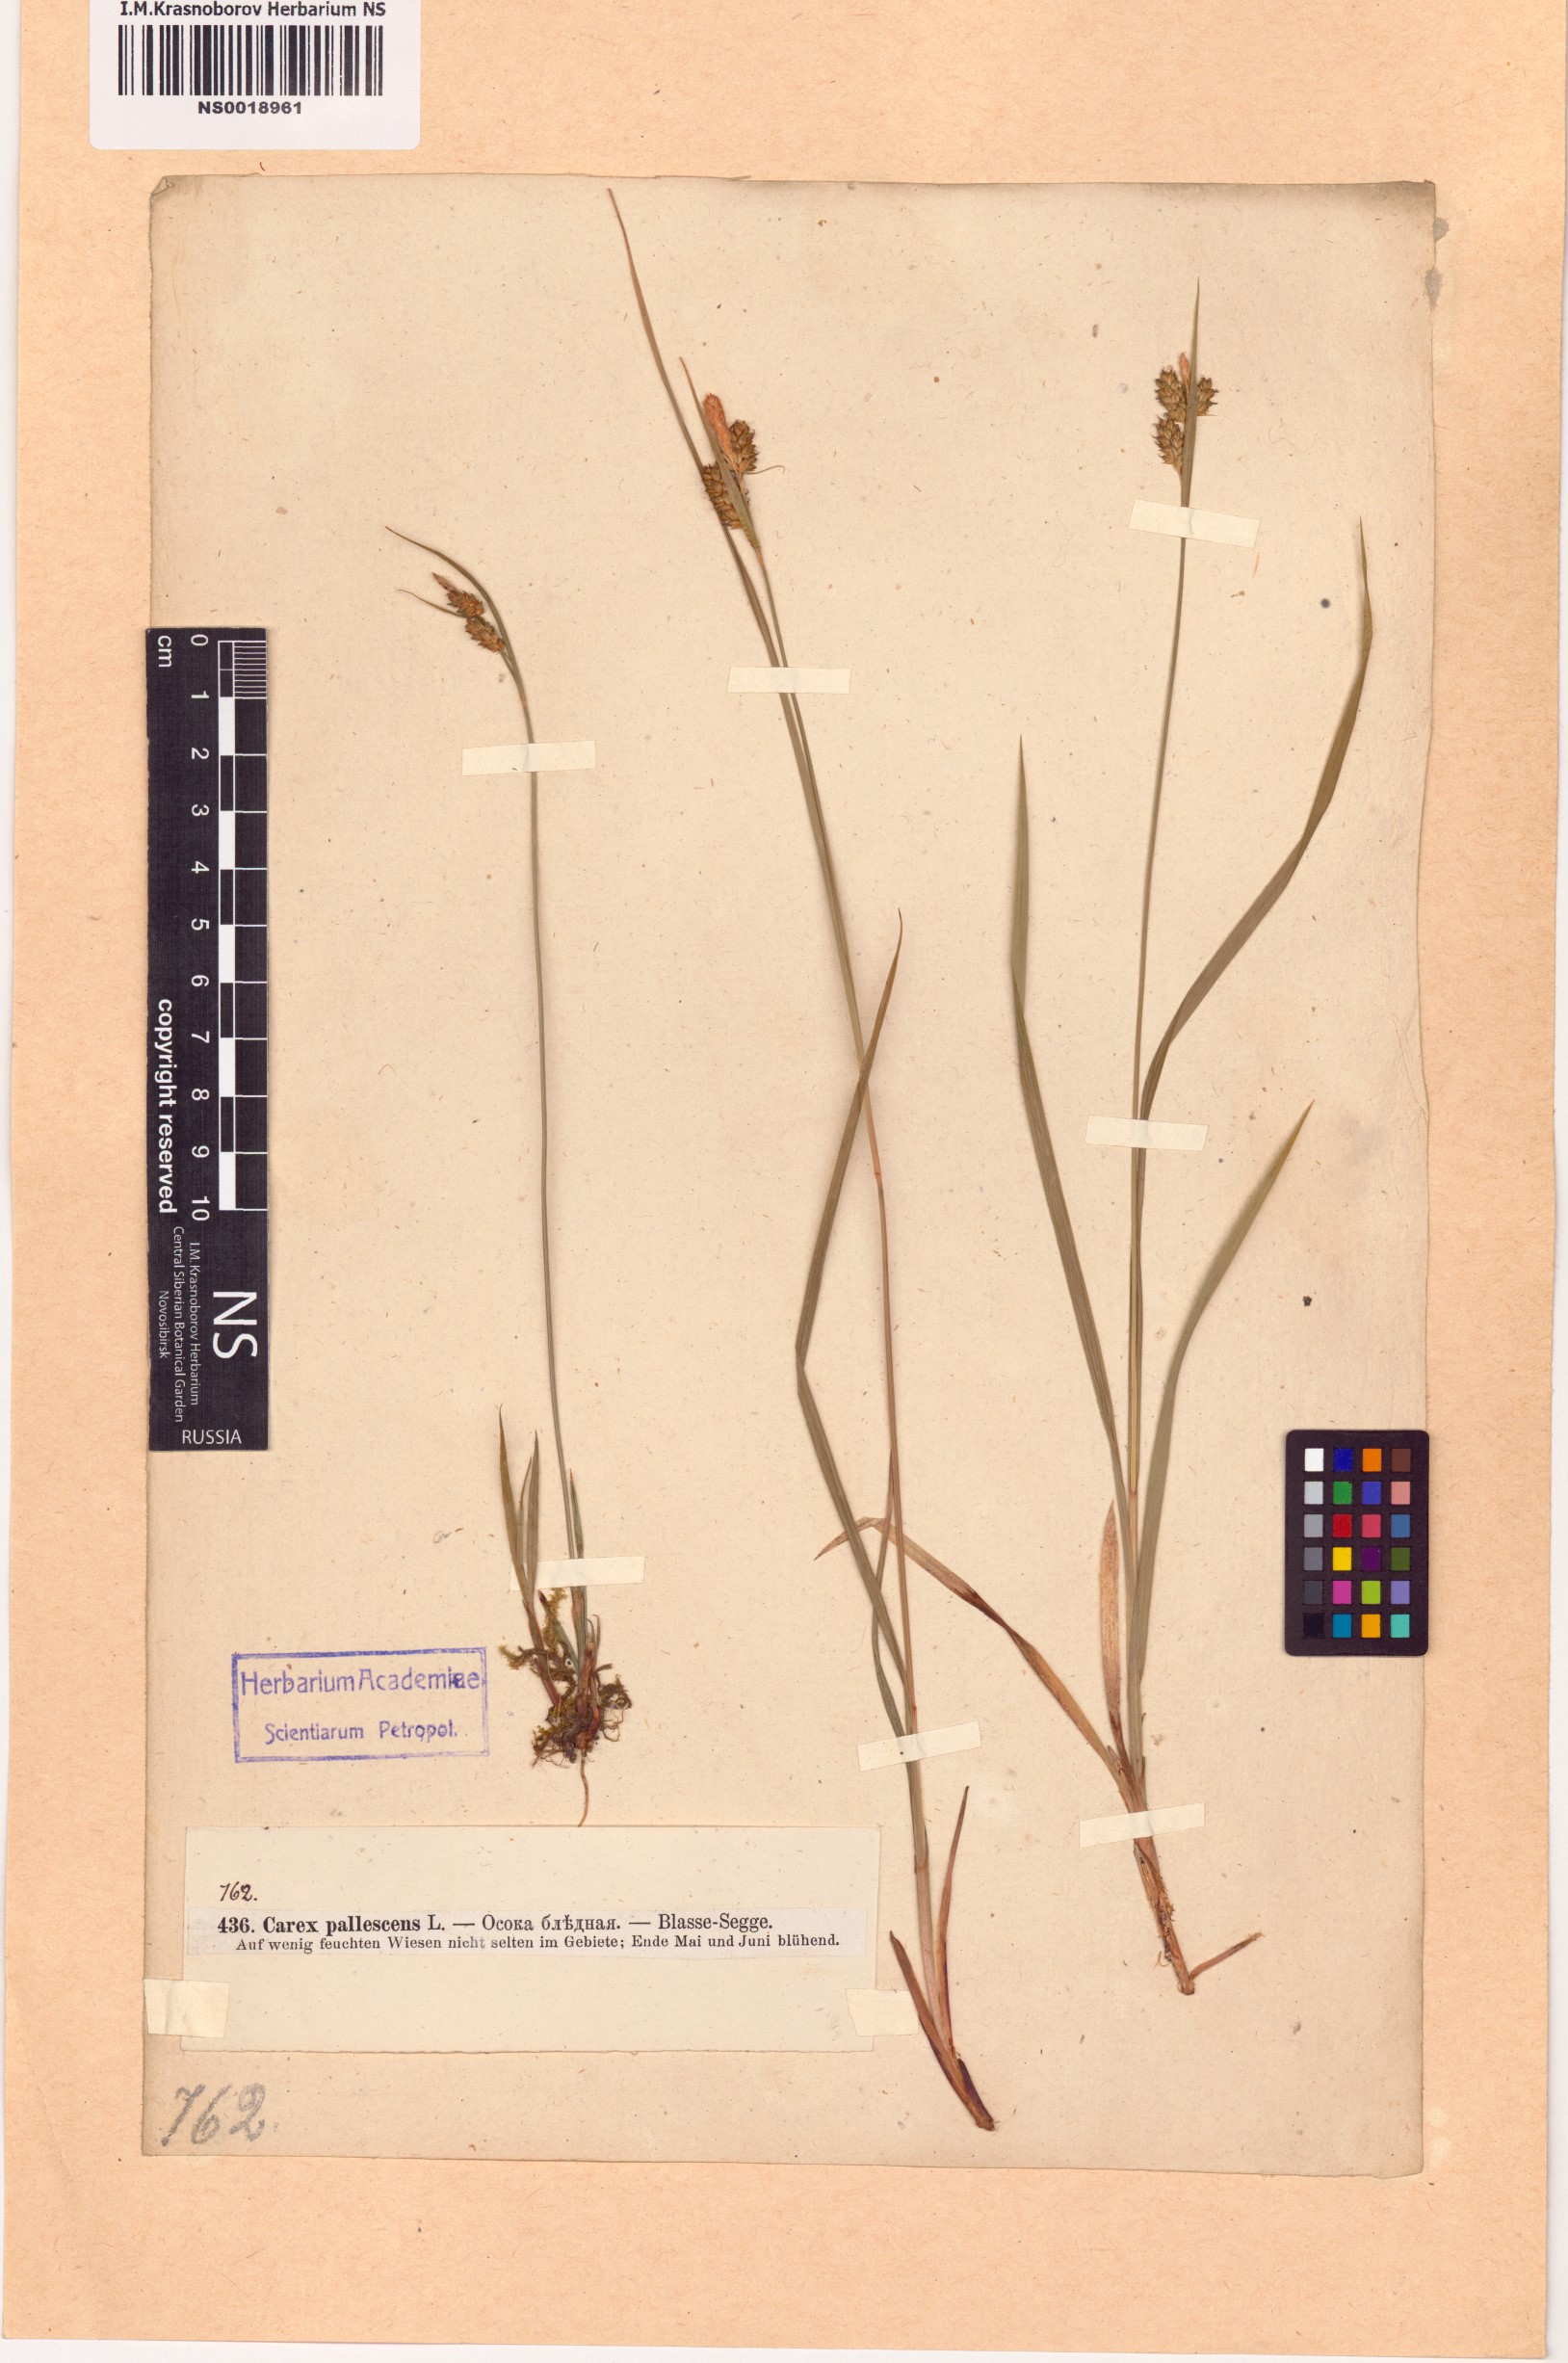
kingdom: Plantae
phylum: Tracheophyta
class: Liliopsida
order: Poales
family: Cyperaceae
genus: Carex
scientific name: Carex pallescens
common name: Pale sedge
